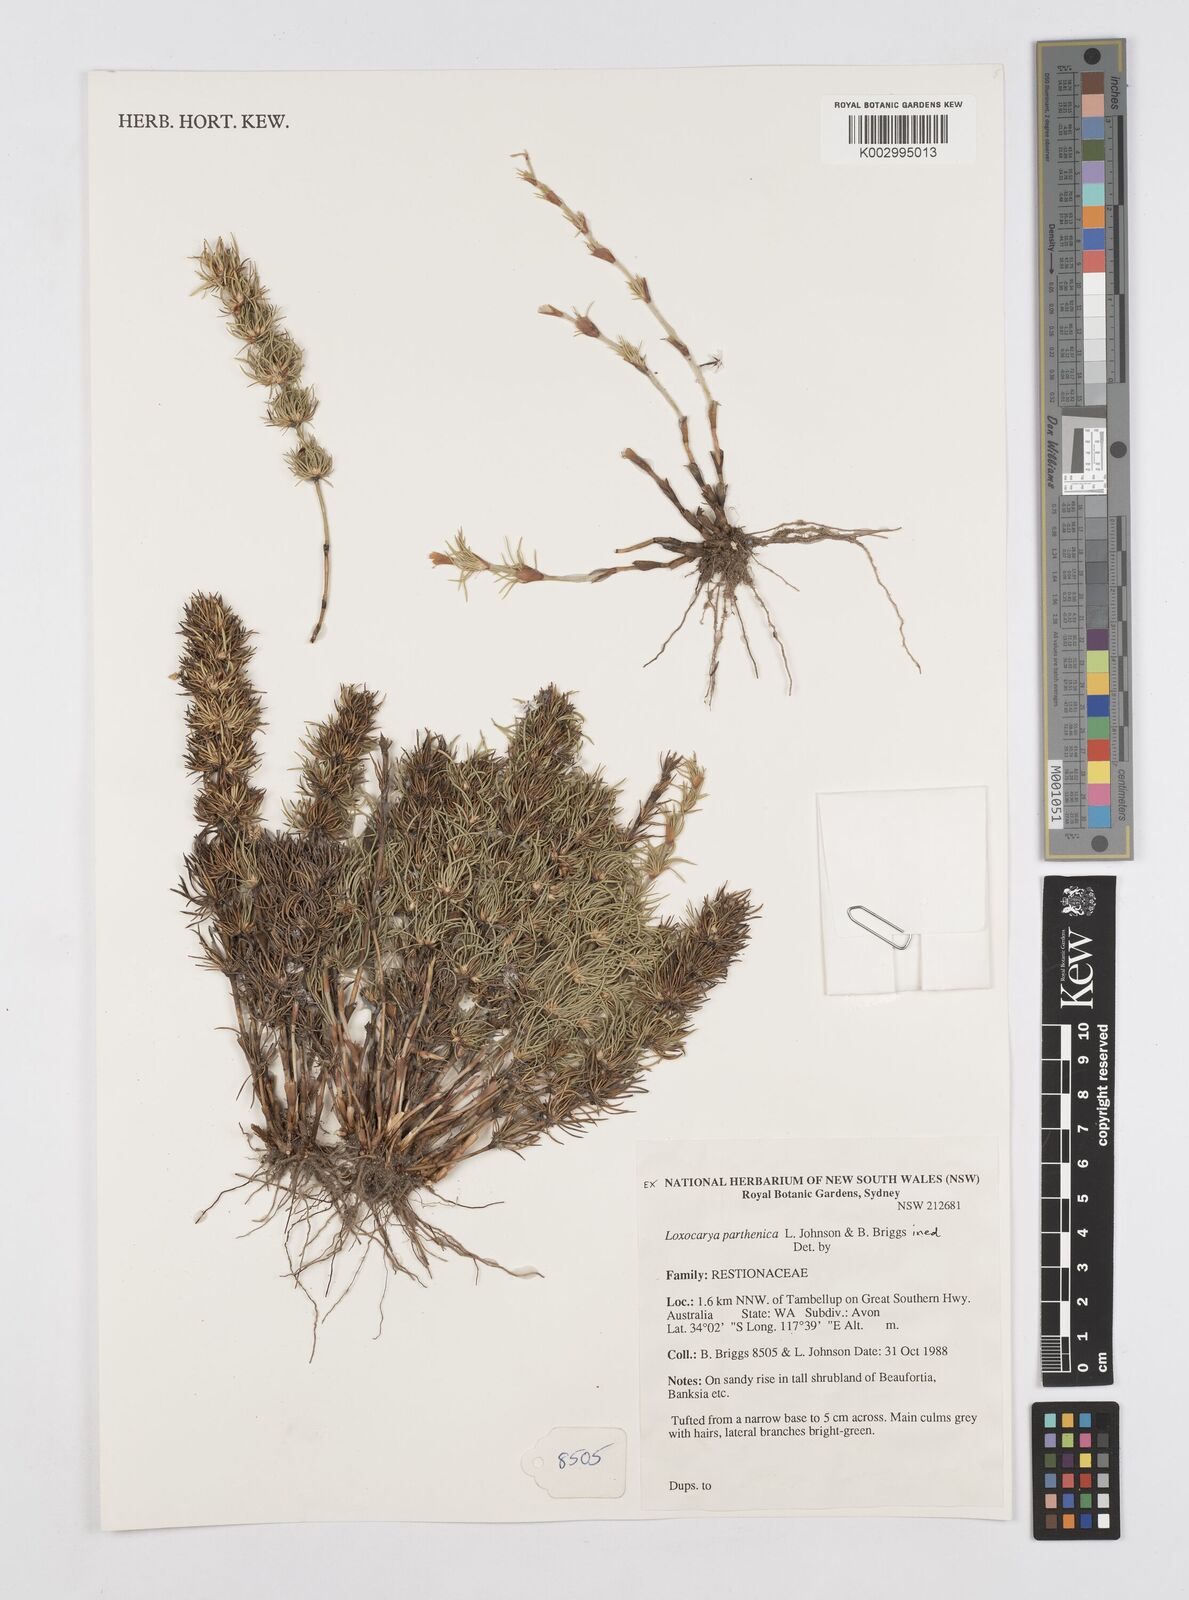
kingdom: Plantae
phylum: Tracheophyta
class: Liliopsida
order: Poales
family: Restionaceae
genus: Desmocladus
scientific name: Desmocladus parthenicus
